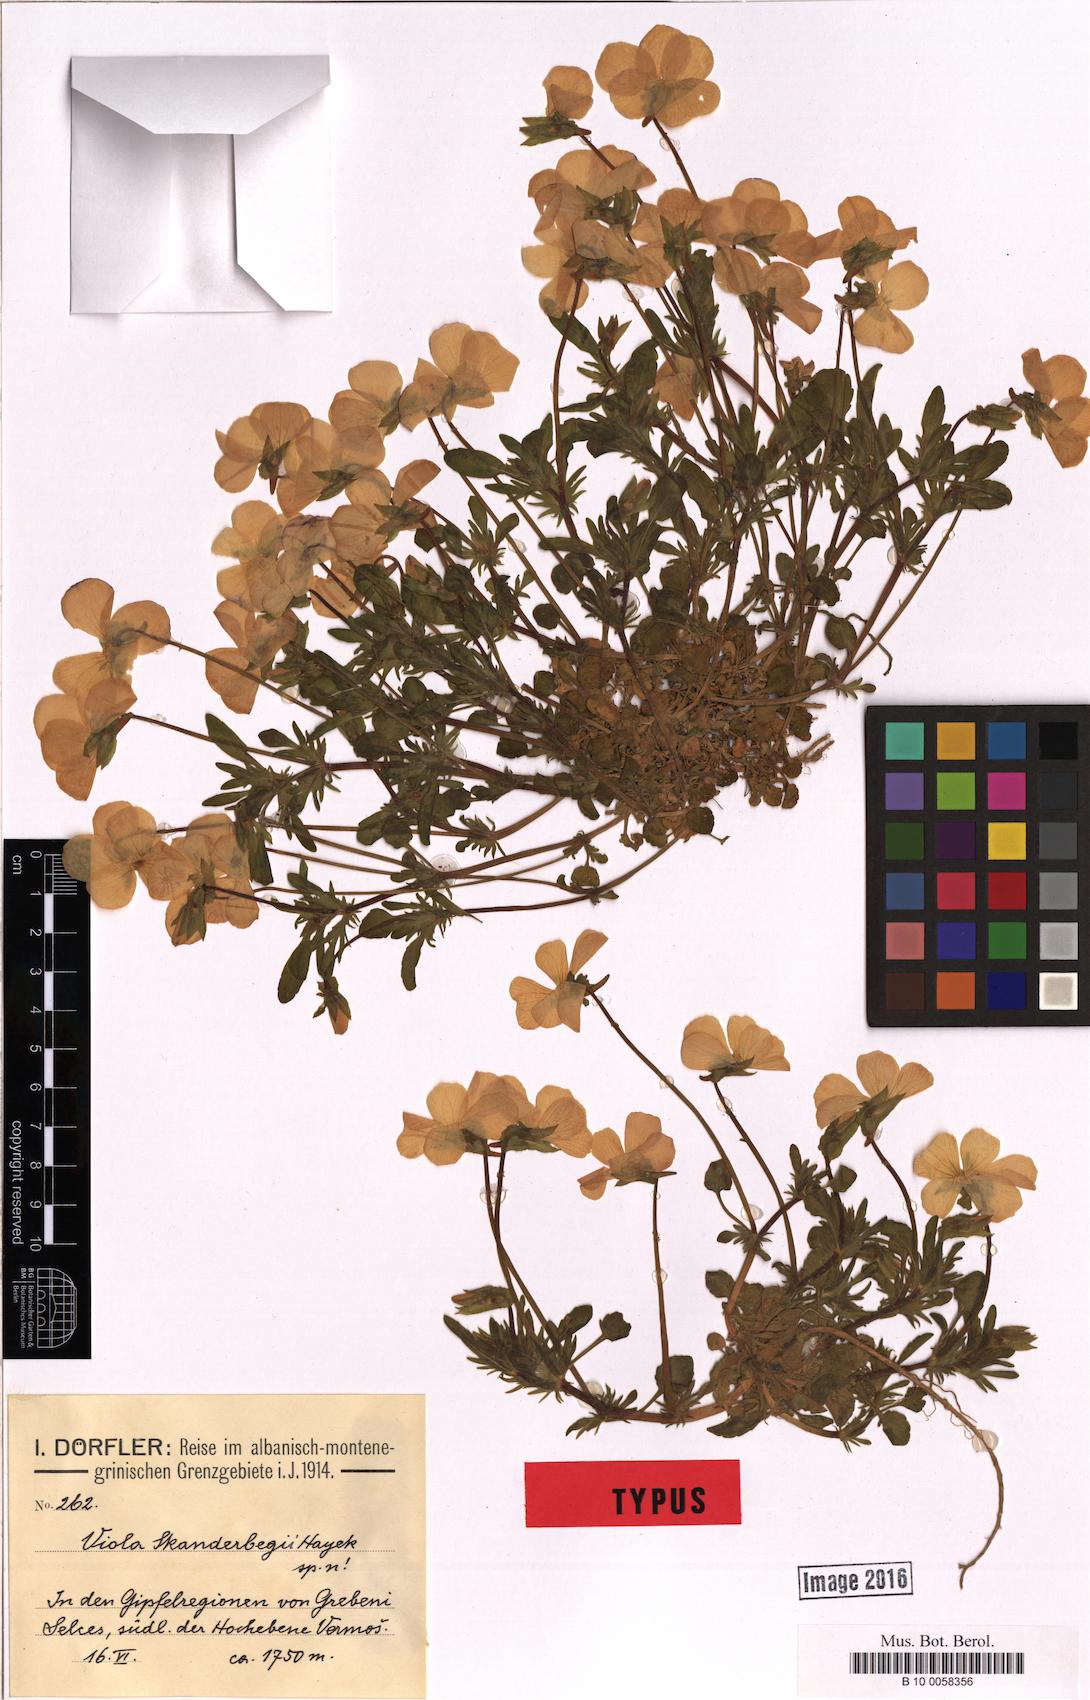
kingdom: Plantae
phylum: Tracheophyta
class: Magnoliopsida
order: Malpighiales
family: Violaceae
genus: Viola
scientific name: Viola elegantula
